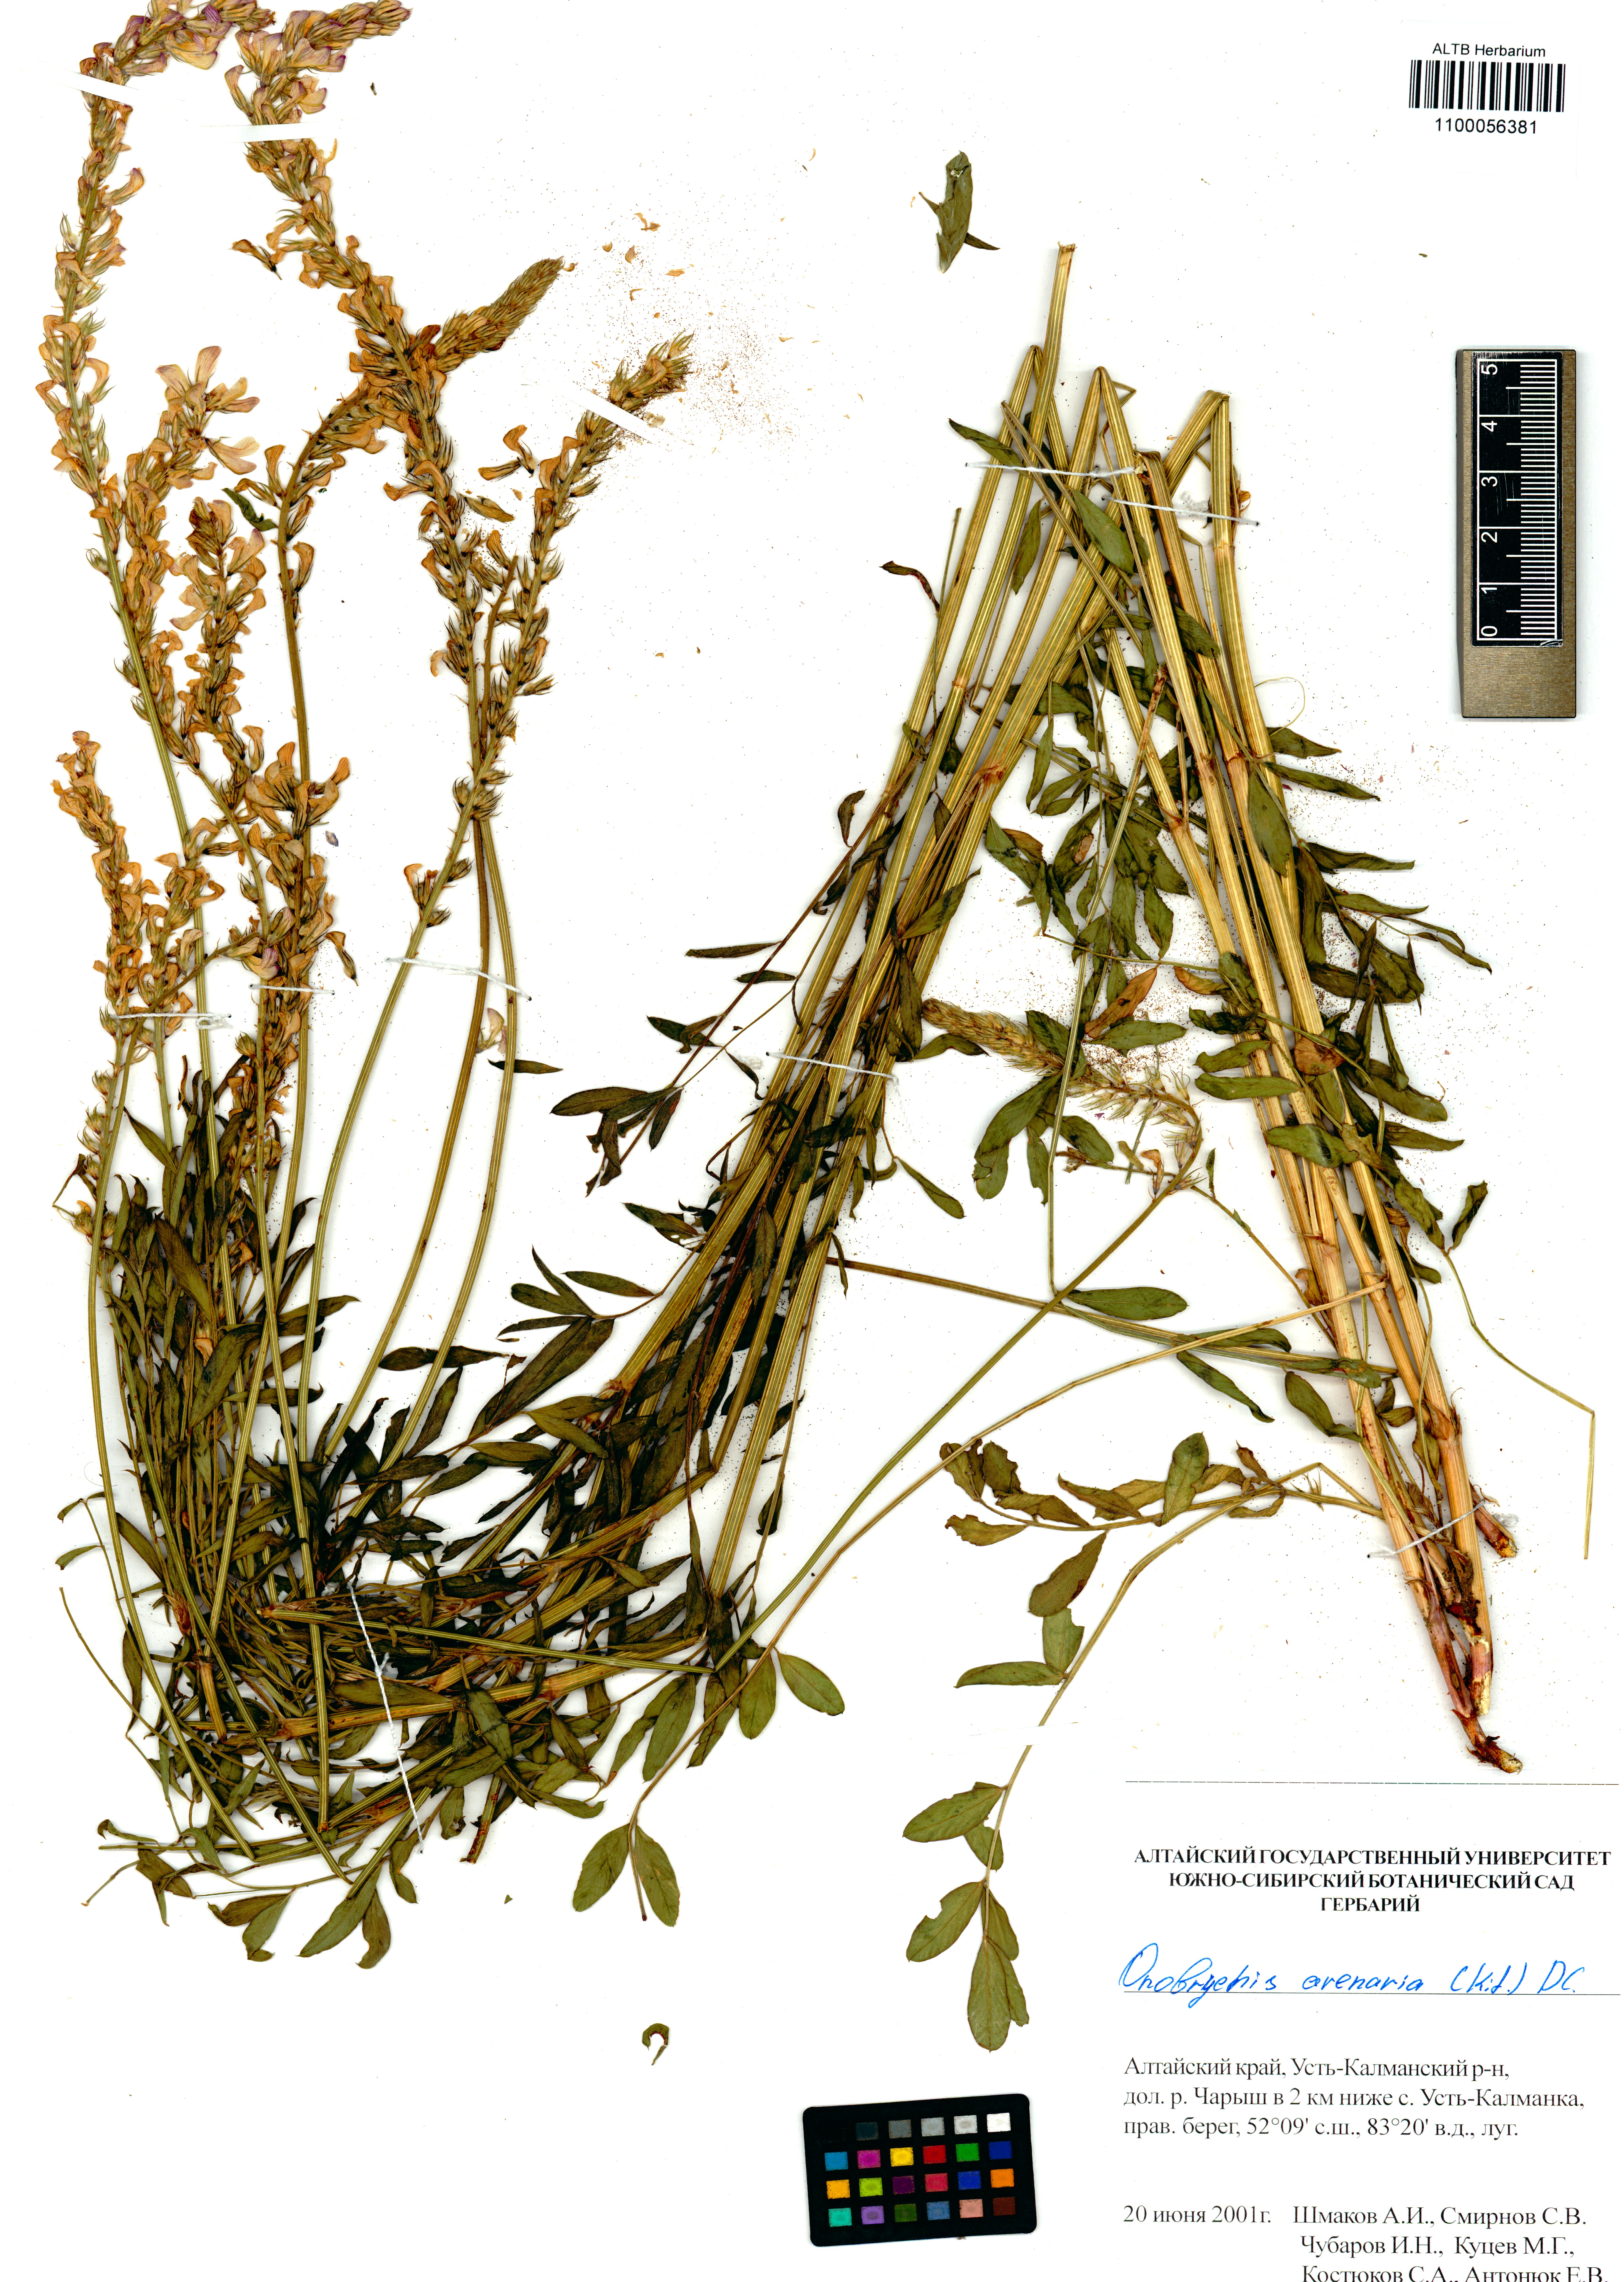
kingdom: Plantae
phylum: Tracheophyta
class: Magnoliopsida
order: Fabales
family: Fabaceae
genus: Onobrychis
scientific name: Onobrychis arenaria
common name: Sand esparcet
